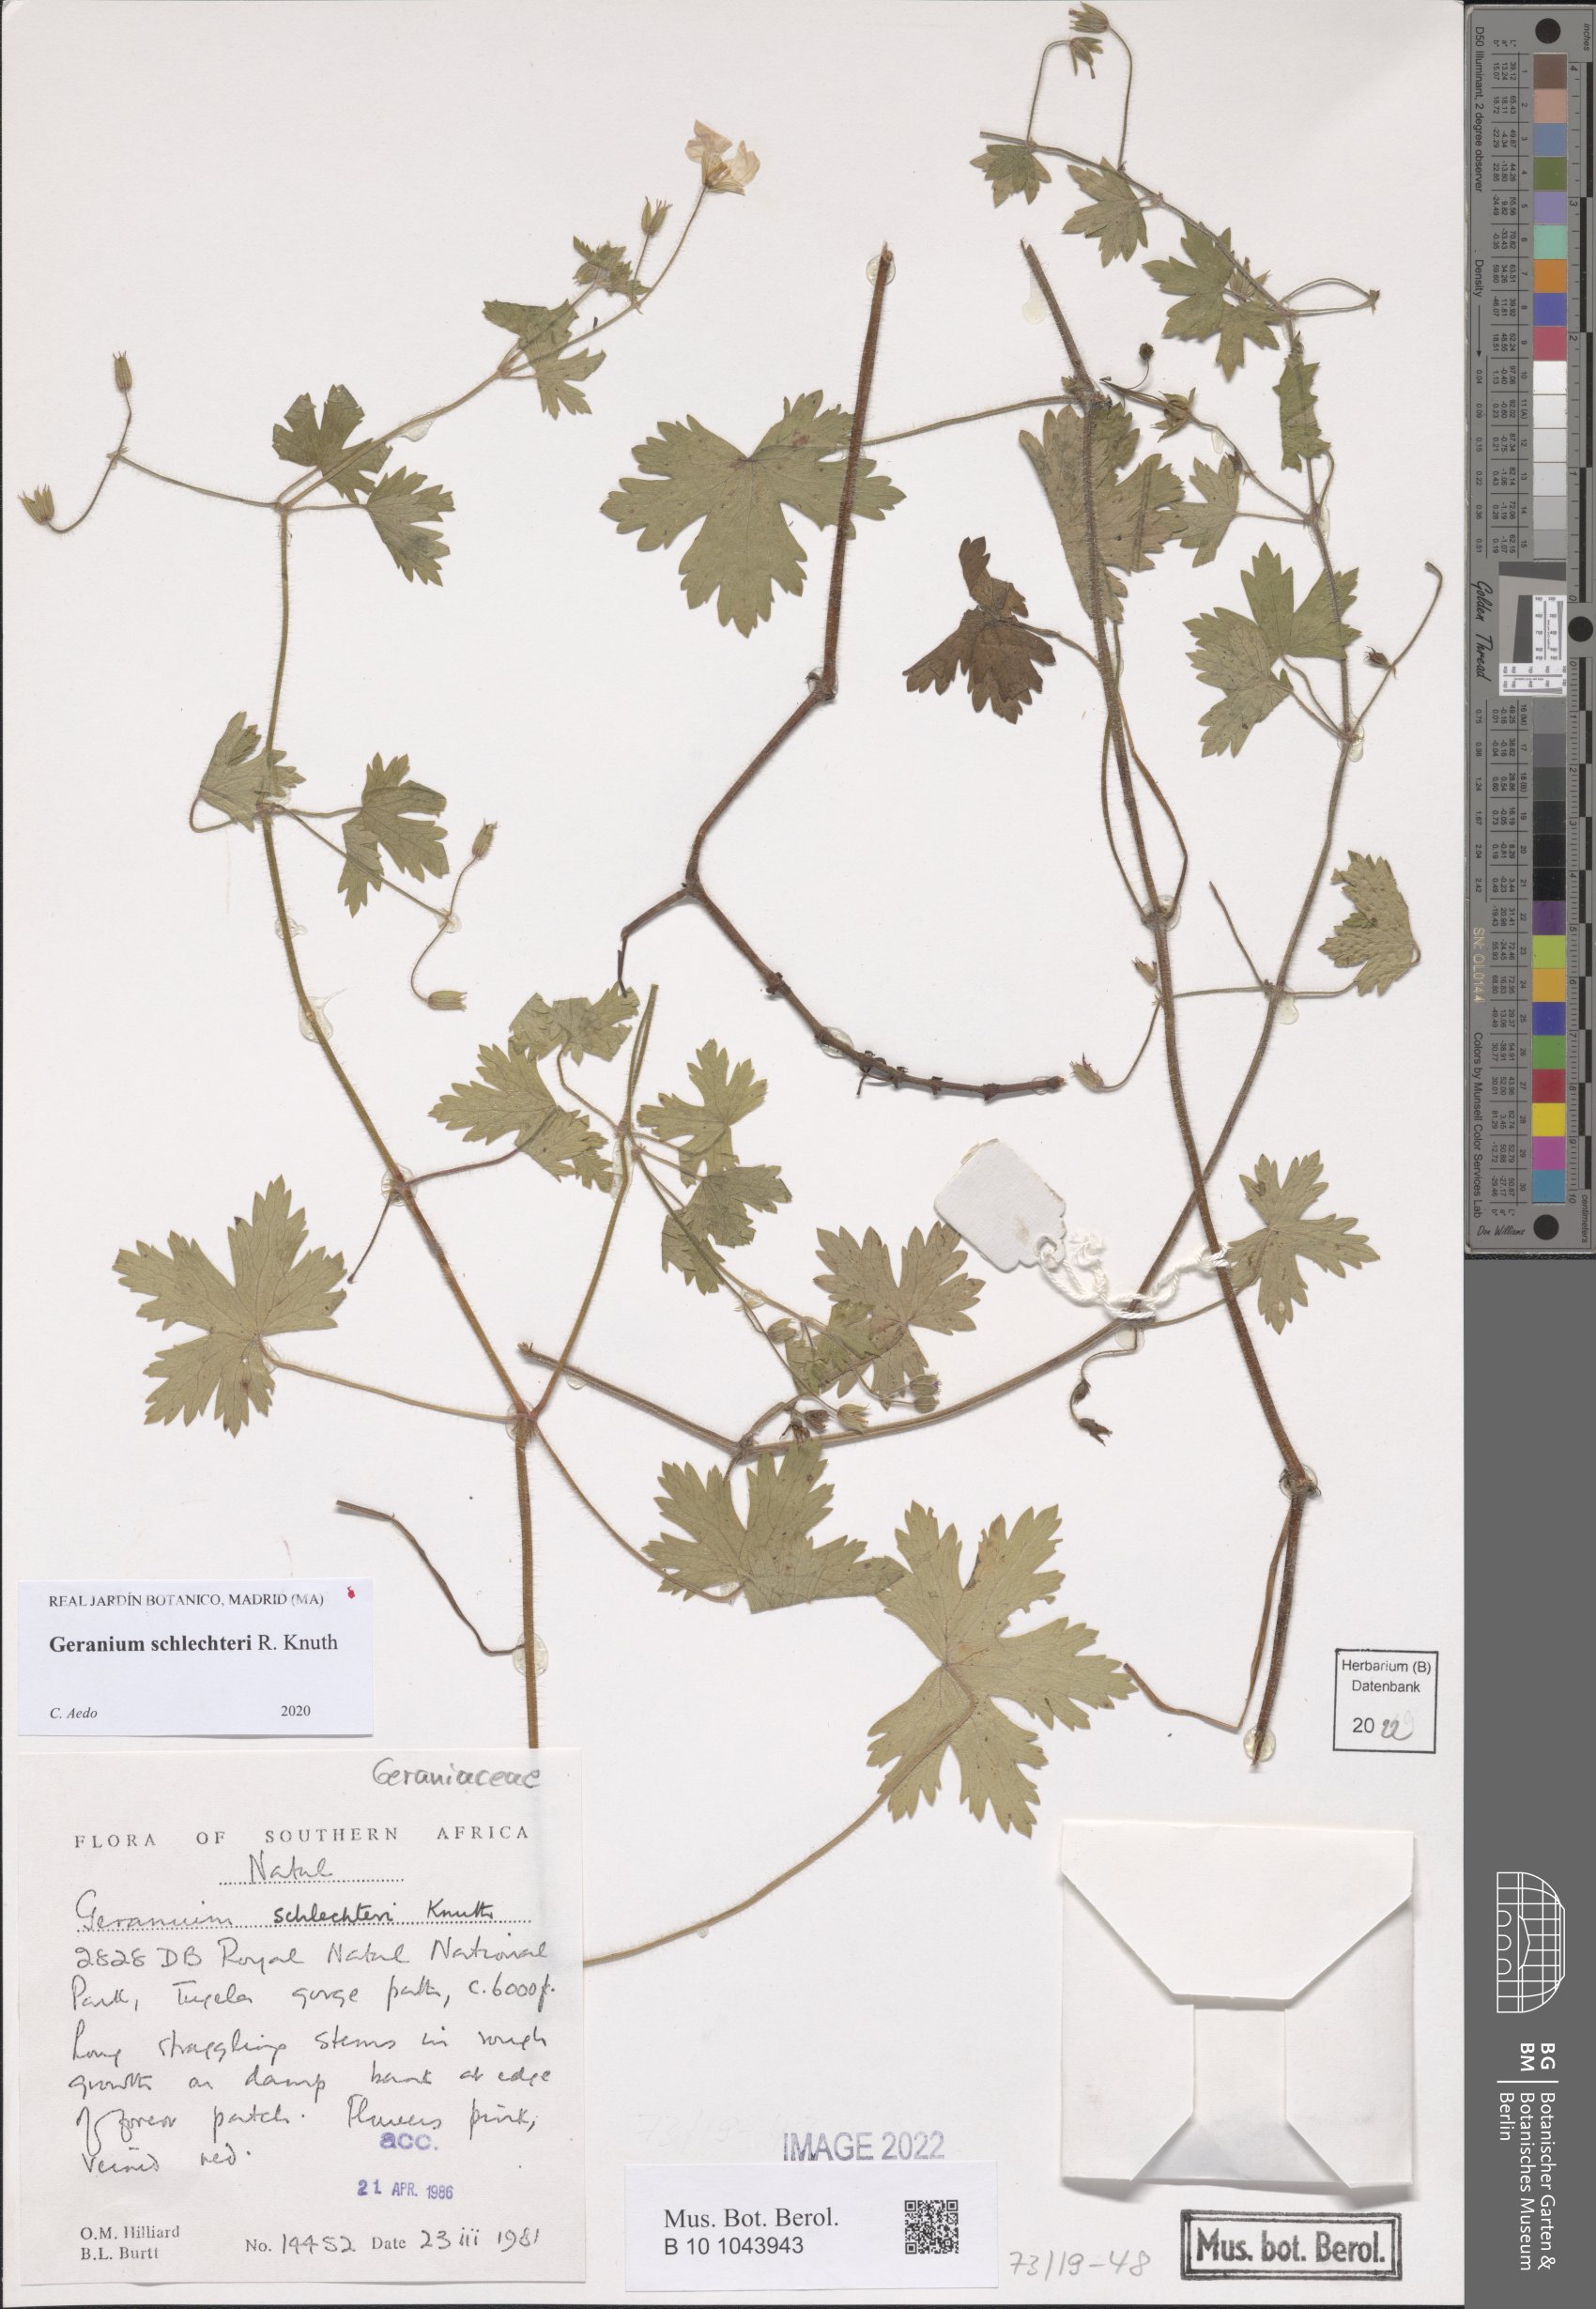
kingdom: Plantae
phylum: Tracheophyta
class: Magnoliopsida
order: Geraniales
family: Geraniaceae
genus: Geranium
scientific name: Geranium schlechteri
